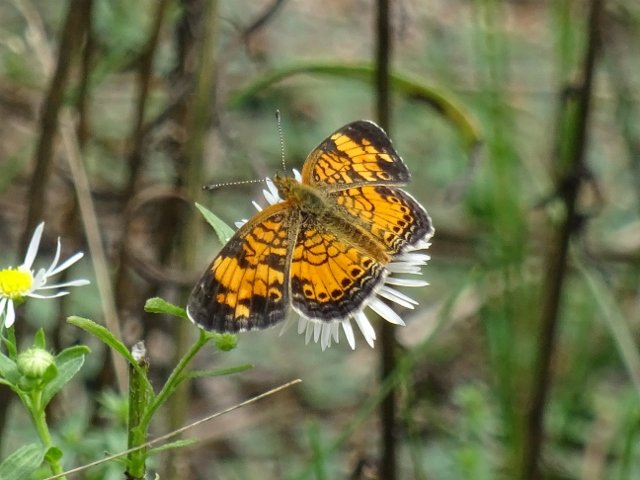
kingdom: Animalia
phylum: Arthropoda
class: Insecta
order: Lepidoptera
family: Nymphalidae
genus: Phyciodes
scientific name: Phyciodes tharos
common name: Pearl Crescent
